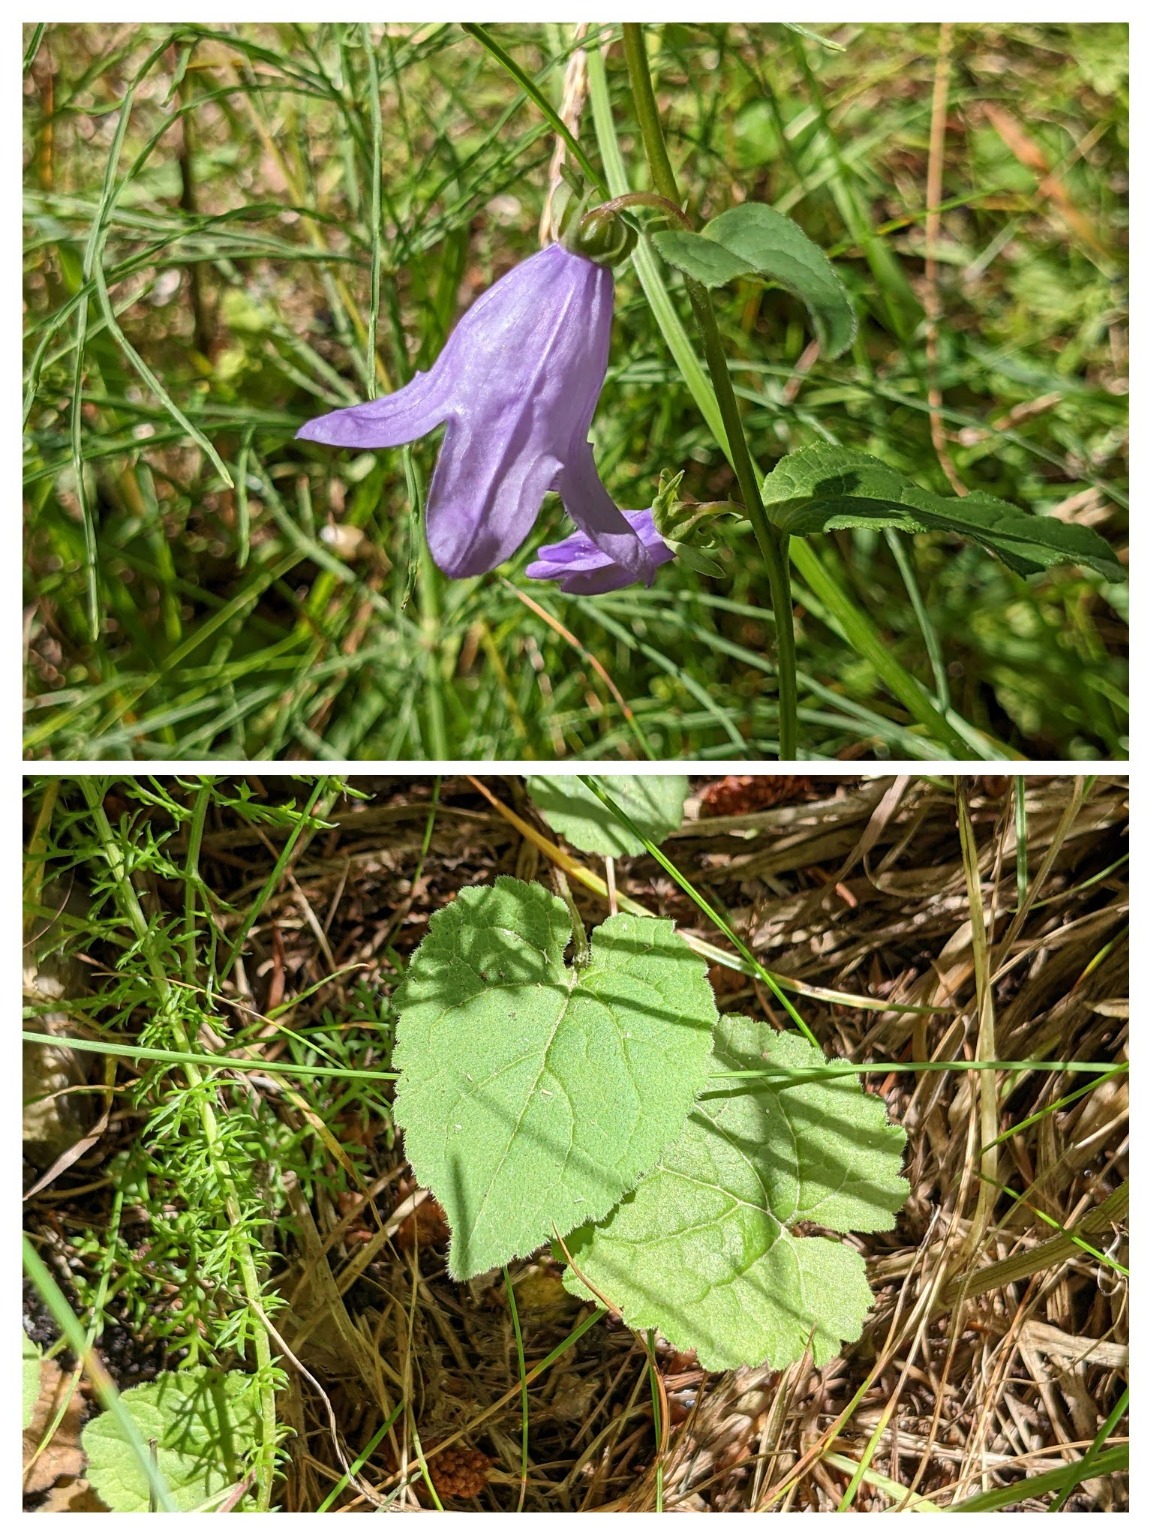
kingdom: Plantae
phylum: Tracheophyta
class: Magnoliopsida
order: Asterales
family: Campanulaceae
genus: Campanula
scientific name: Campanula rapunculoides
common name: Ensidig klokke
